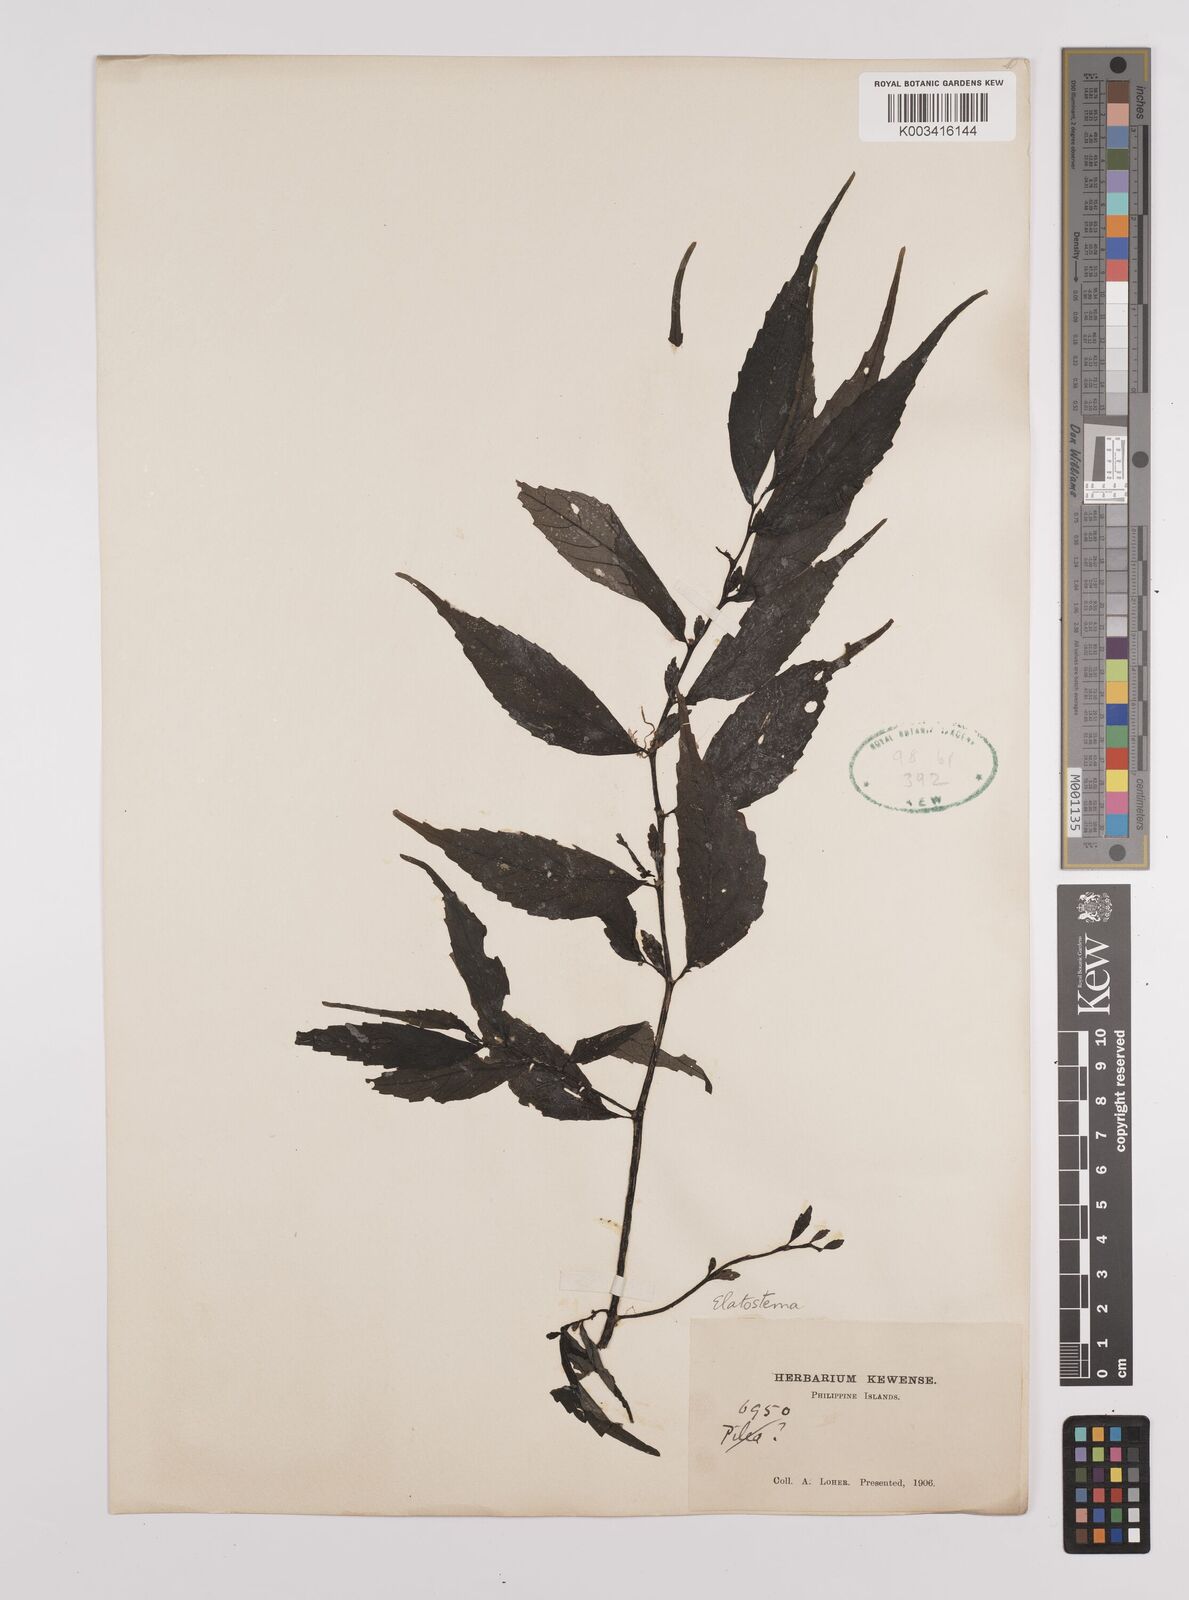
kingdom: Plantae
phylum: Tracheophyta
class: Magnoliopsida
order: Rosales
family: Urticaceae
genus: Elatostema
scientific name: Elatostema
